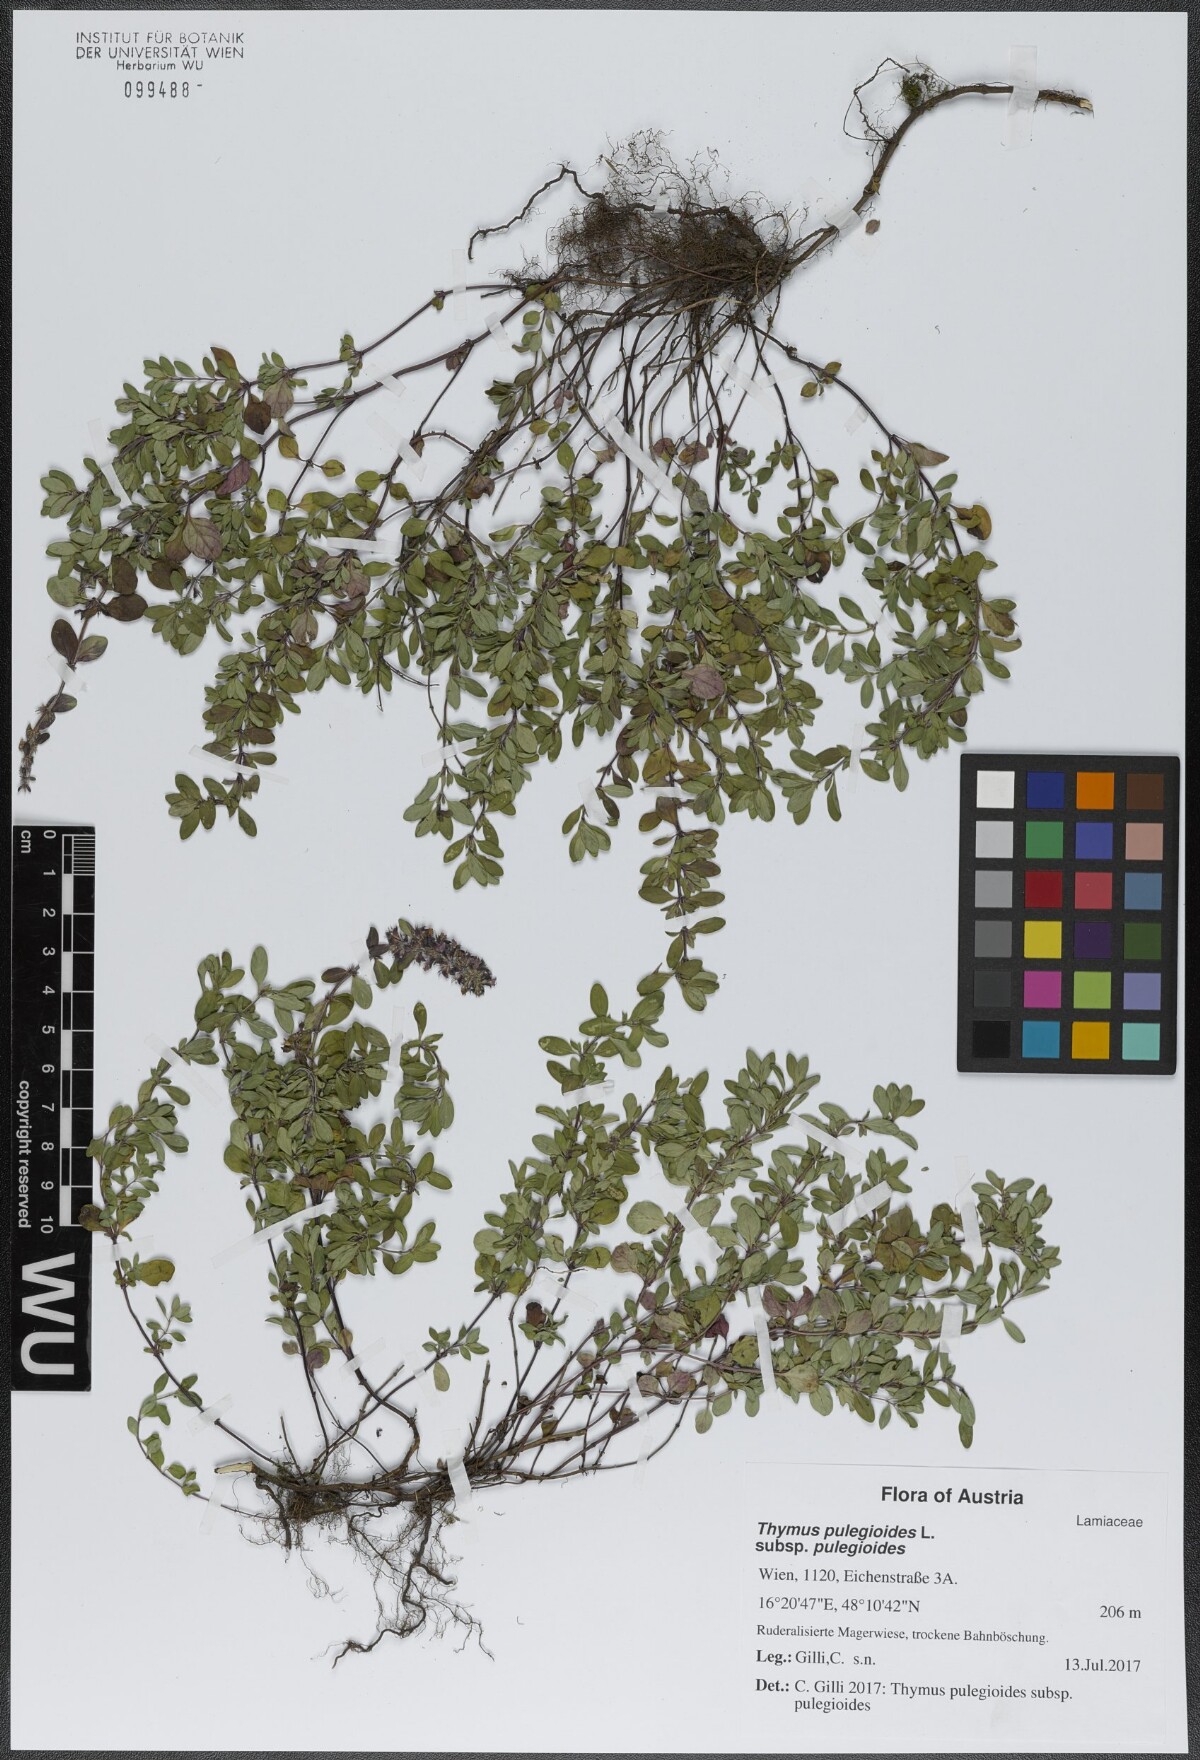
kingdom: Plantae
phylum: Tracheophyta
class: Magnoliopsida
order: Lamiales
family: Lamiaceae
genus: Thymus
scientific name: Thymus pulegioides
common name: Large thyme
